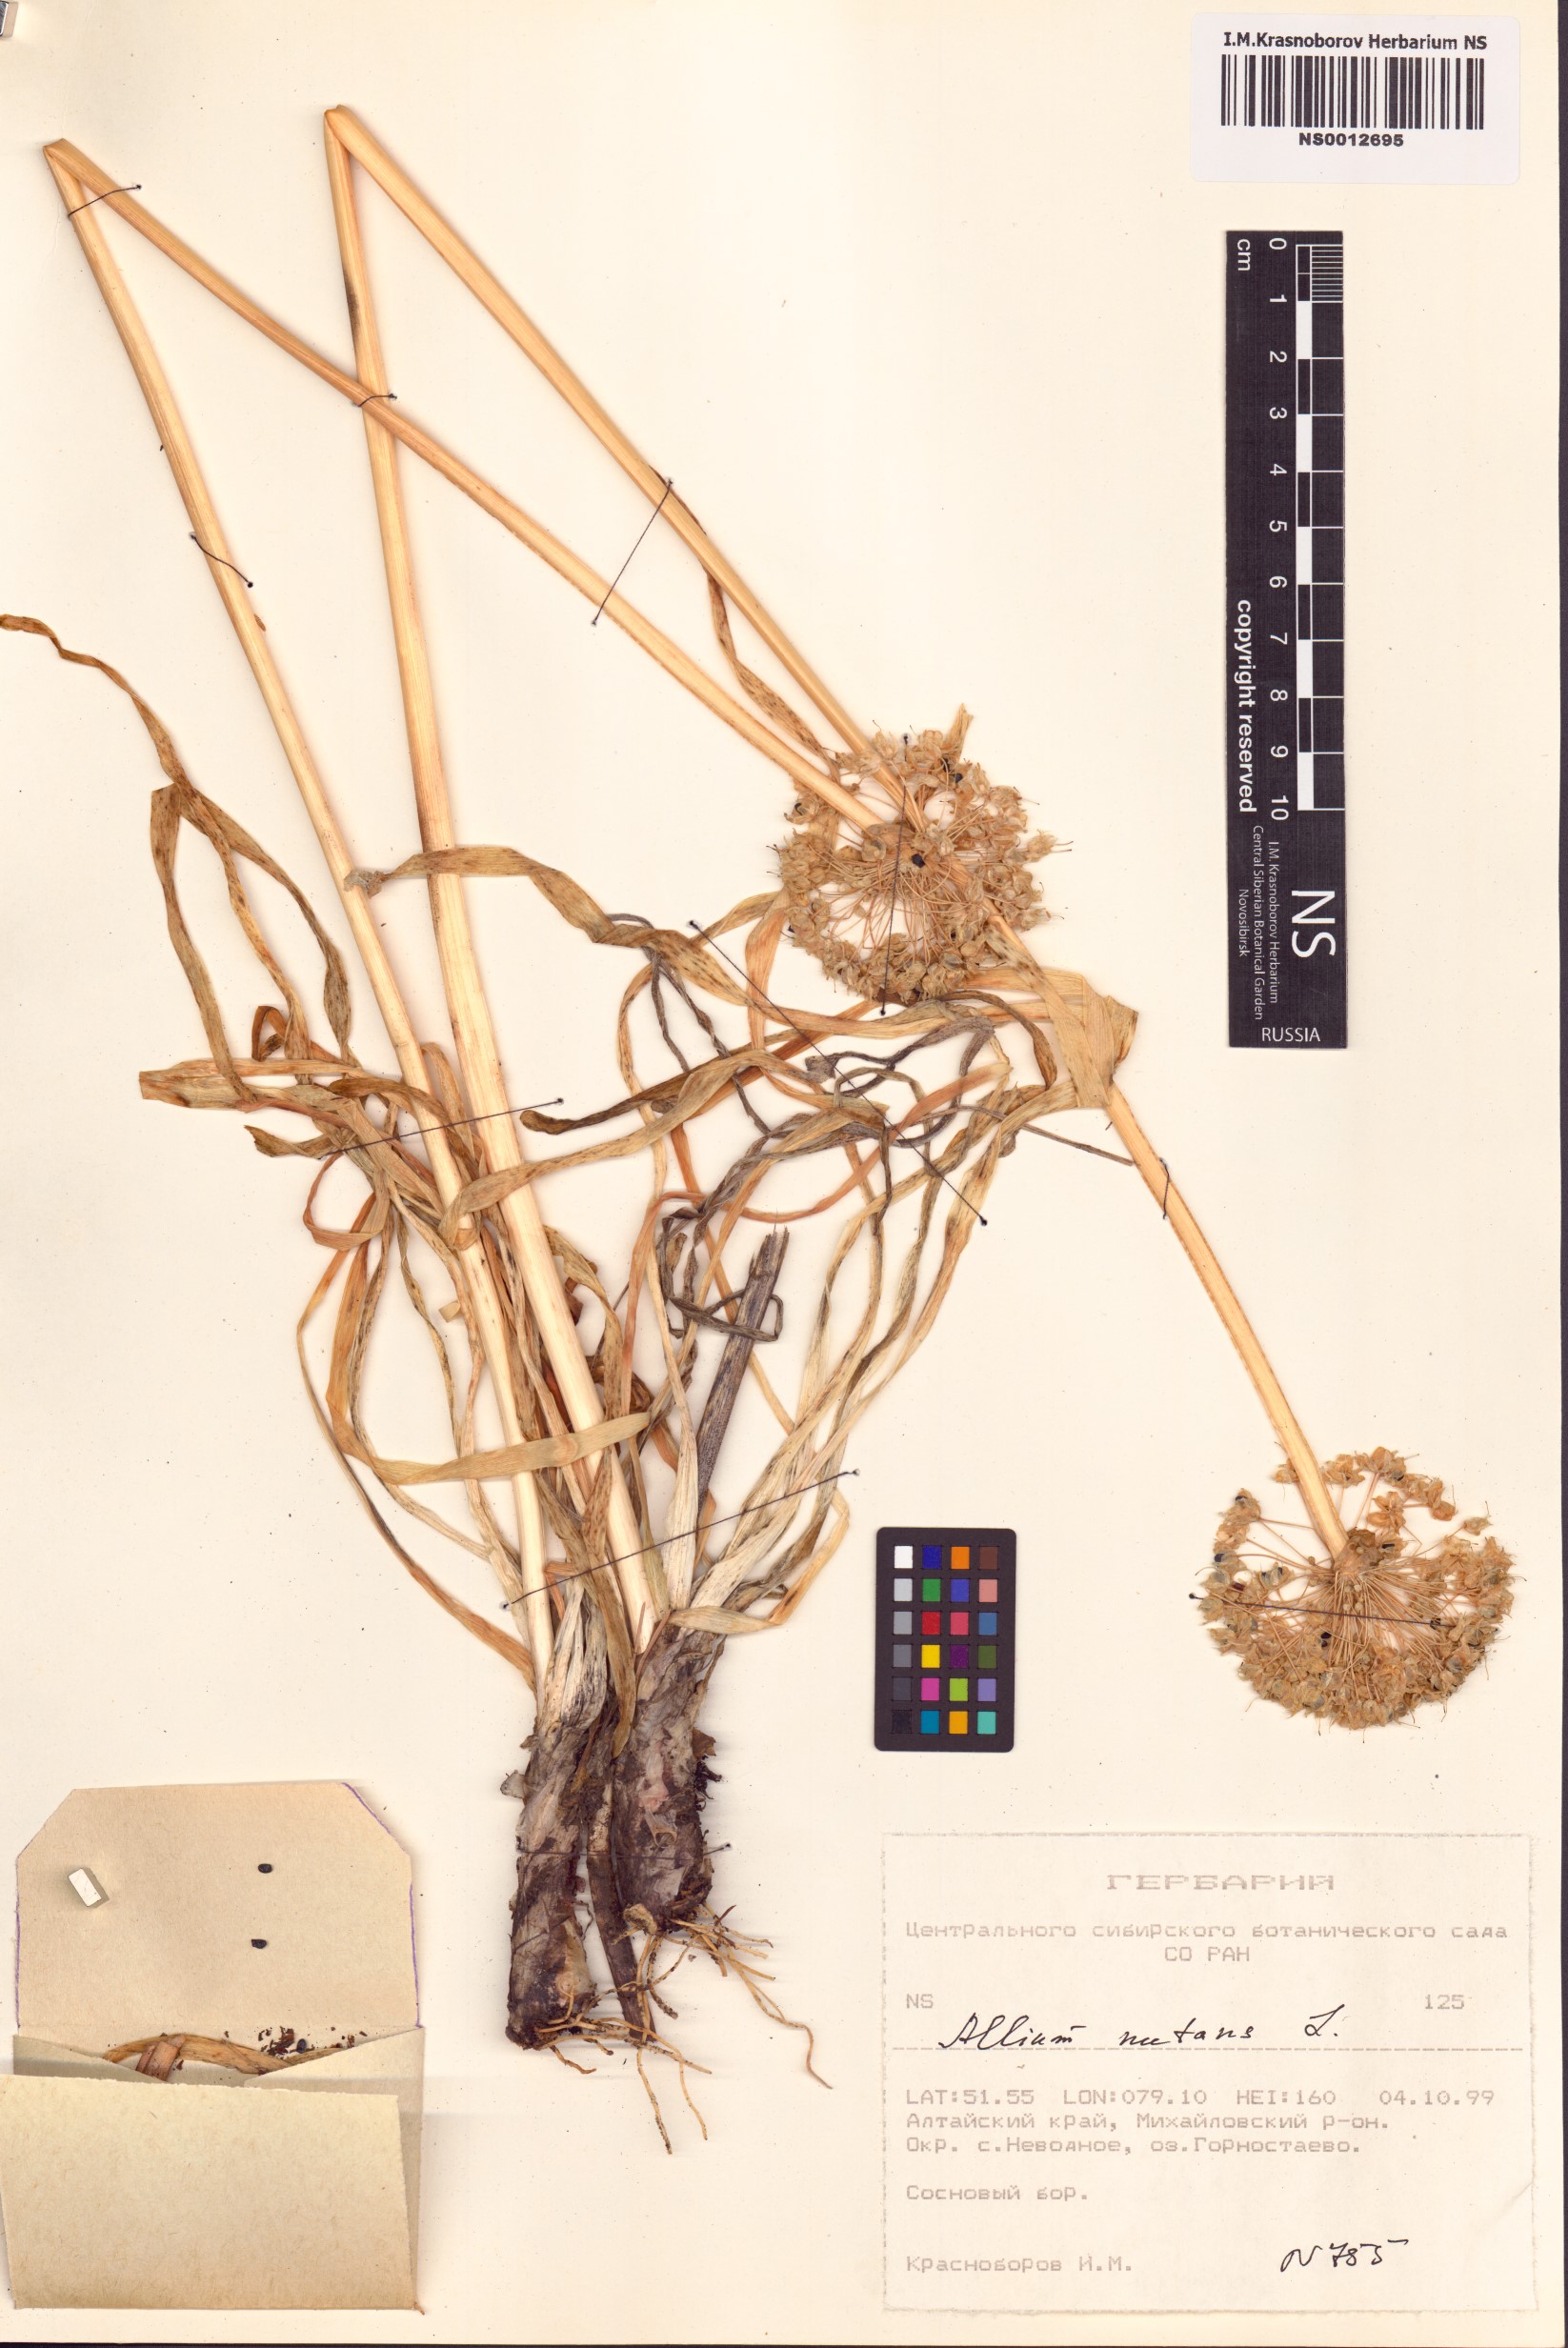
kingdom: Plantae
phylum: Tracheophyta
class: Liliopsida
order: Asparagales
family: Amaryllidaceae
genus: Allium
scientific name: Allium nutans
